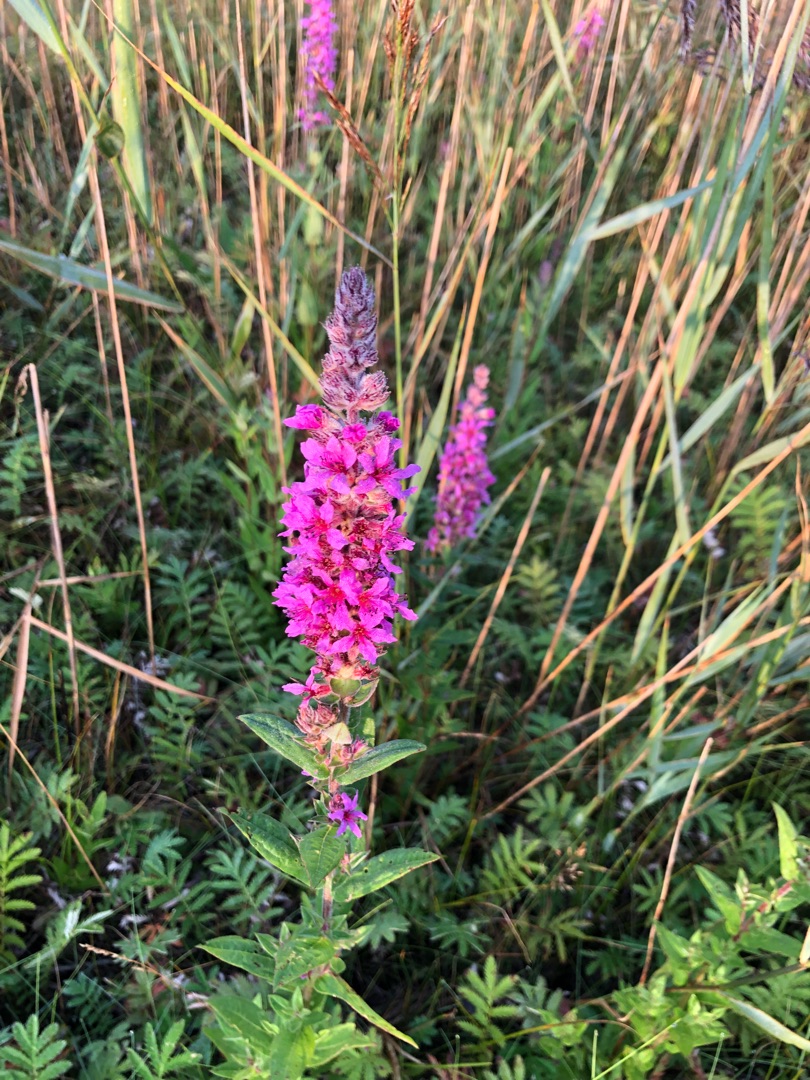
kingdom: Plantae
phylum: Tracheophyta
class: Magnoliopsida
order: Myrtales
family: Lythraceae
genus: Lythrum
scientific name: Lythrum salicaria
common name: Kattehale
